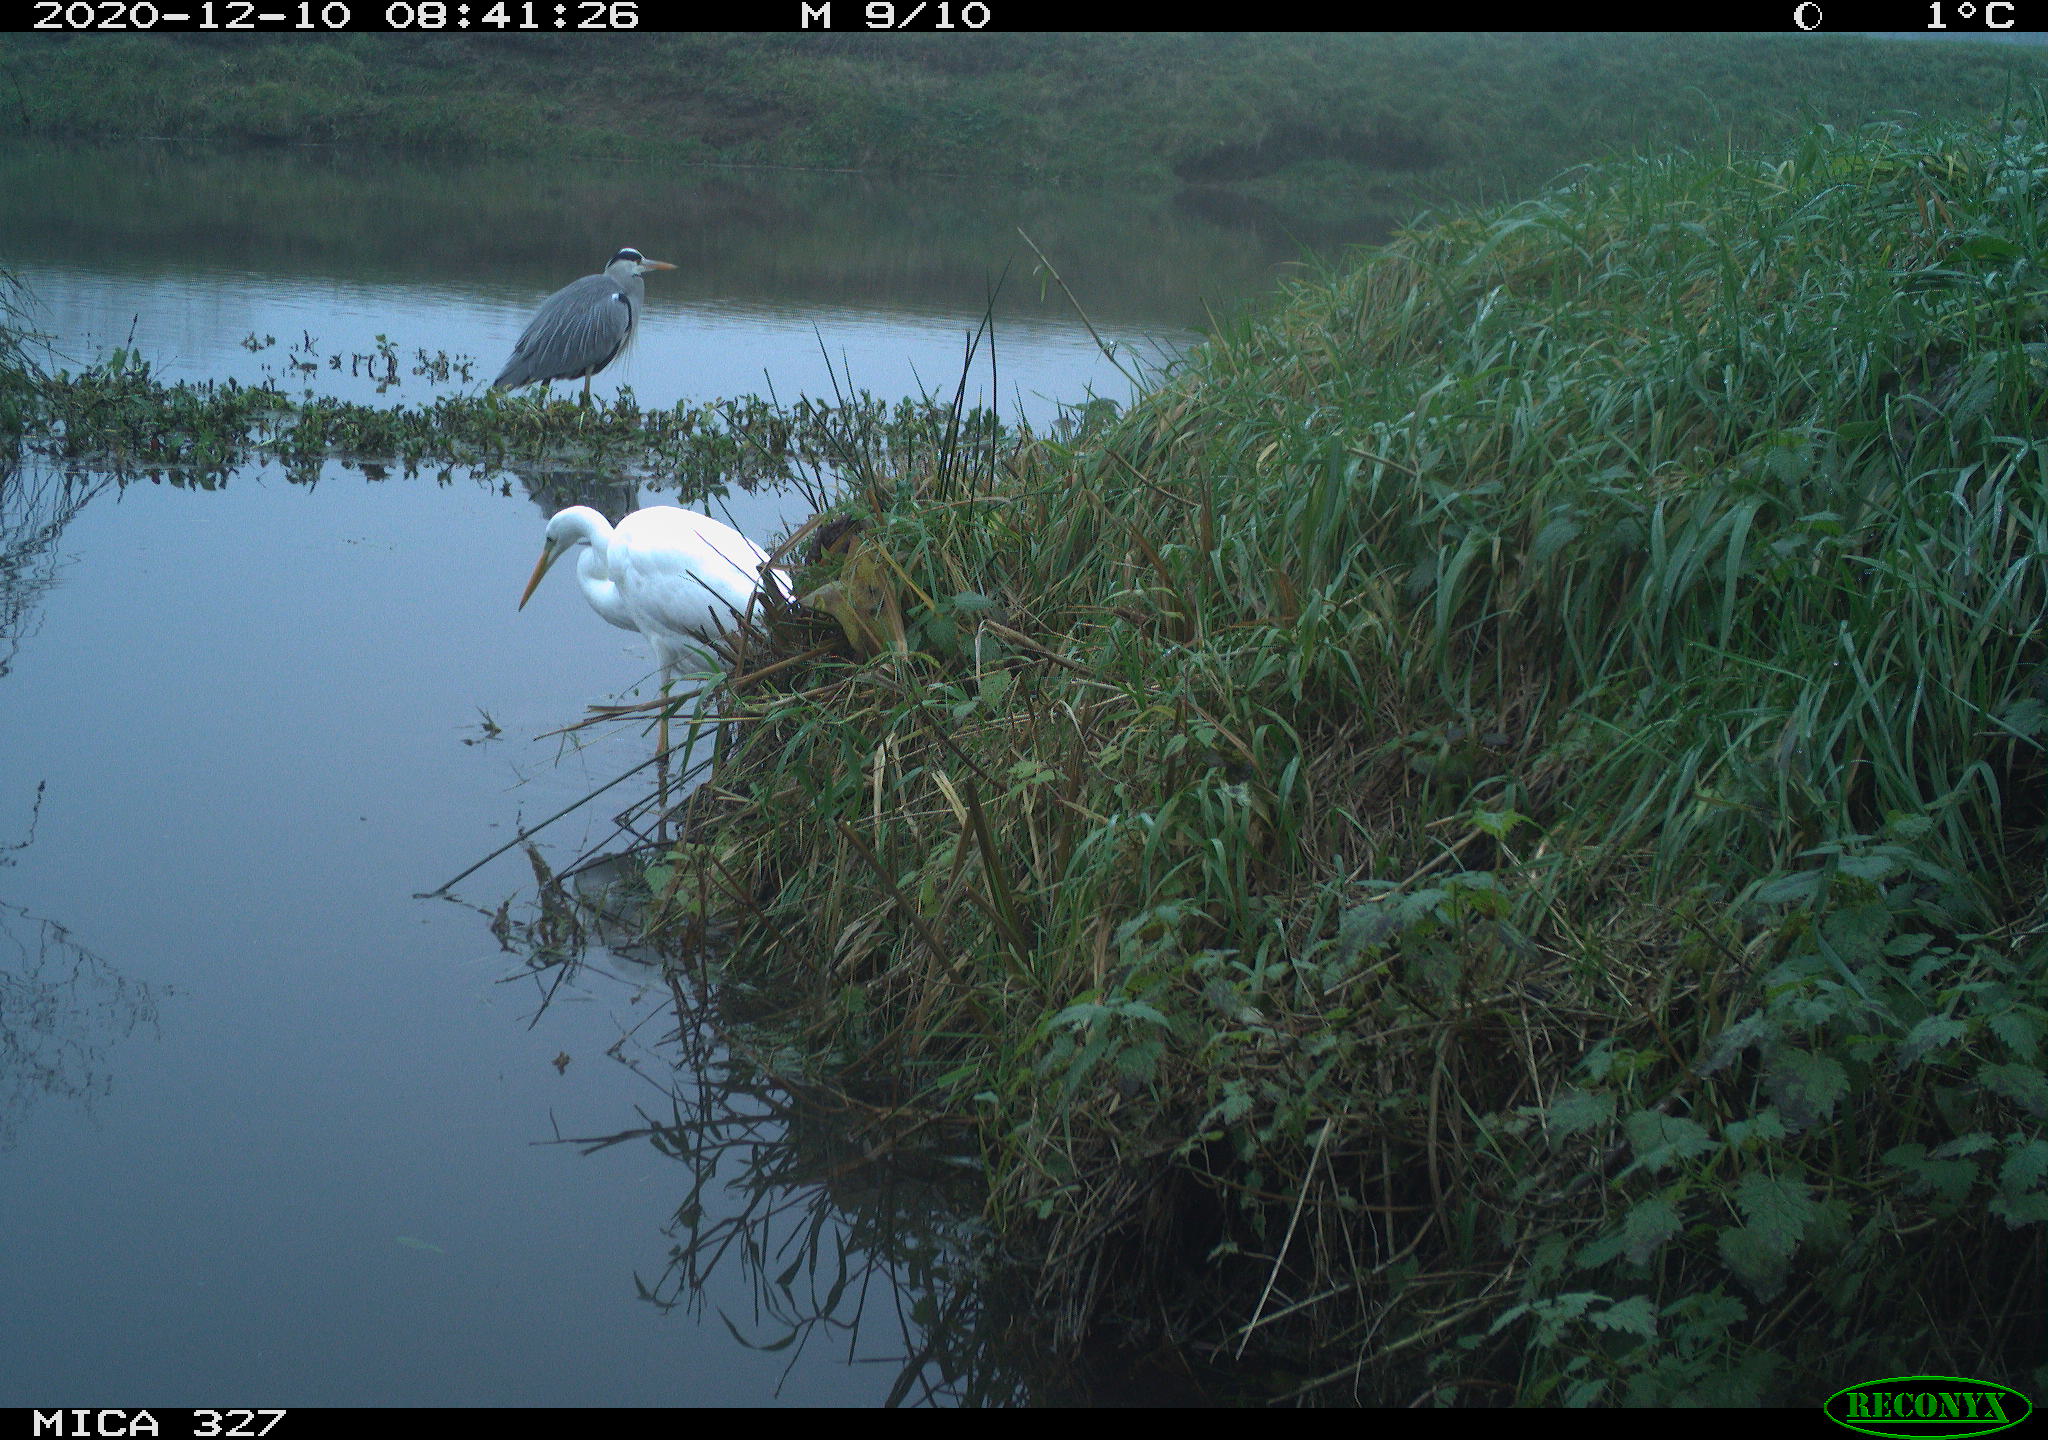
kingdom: Animalia
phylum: Chordata
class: Aves
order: Pelecaniformes
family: Ardeidae
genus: Ardea
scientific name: Ardea cinerea
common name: Grey heron
